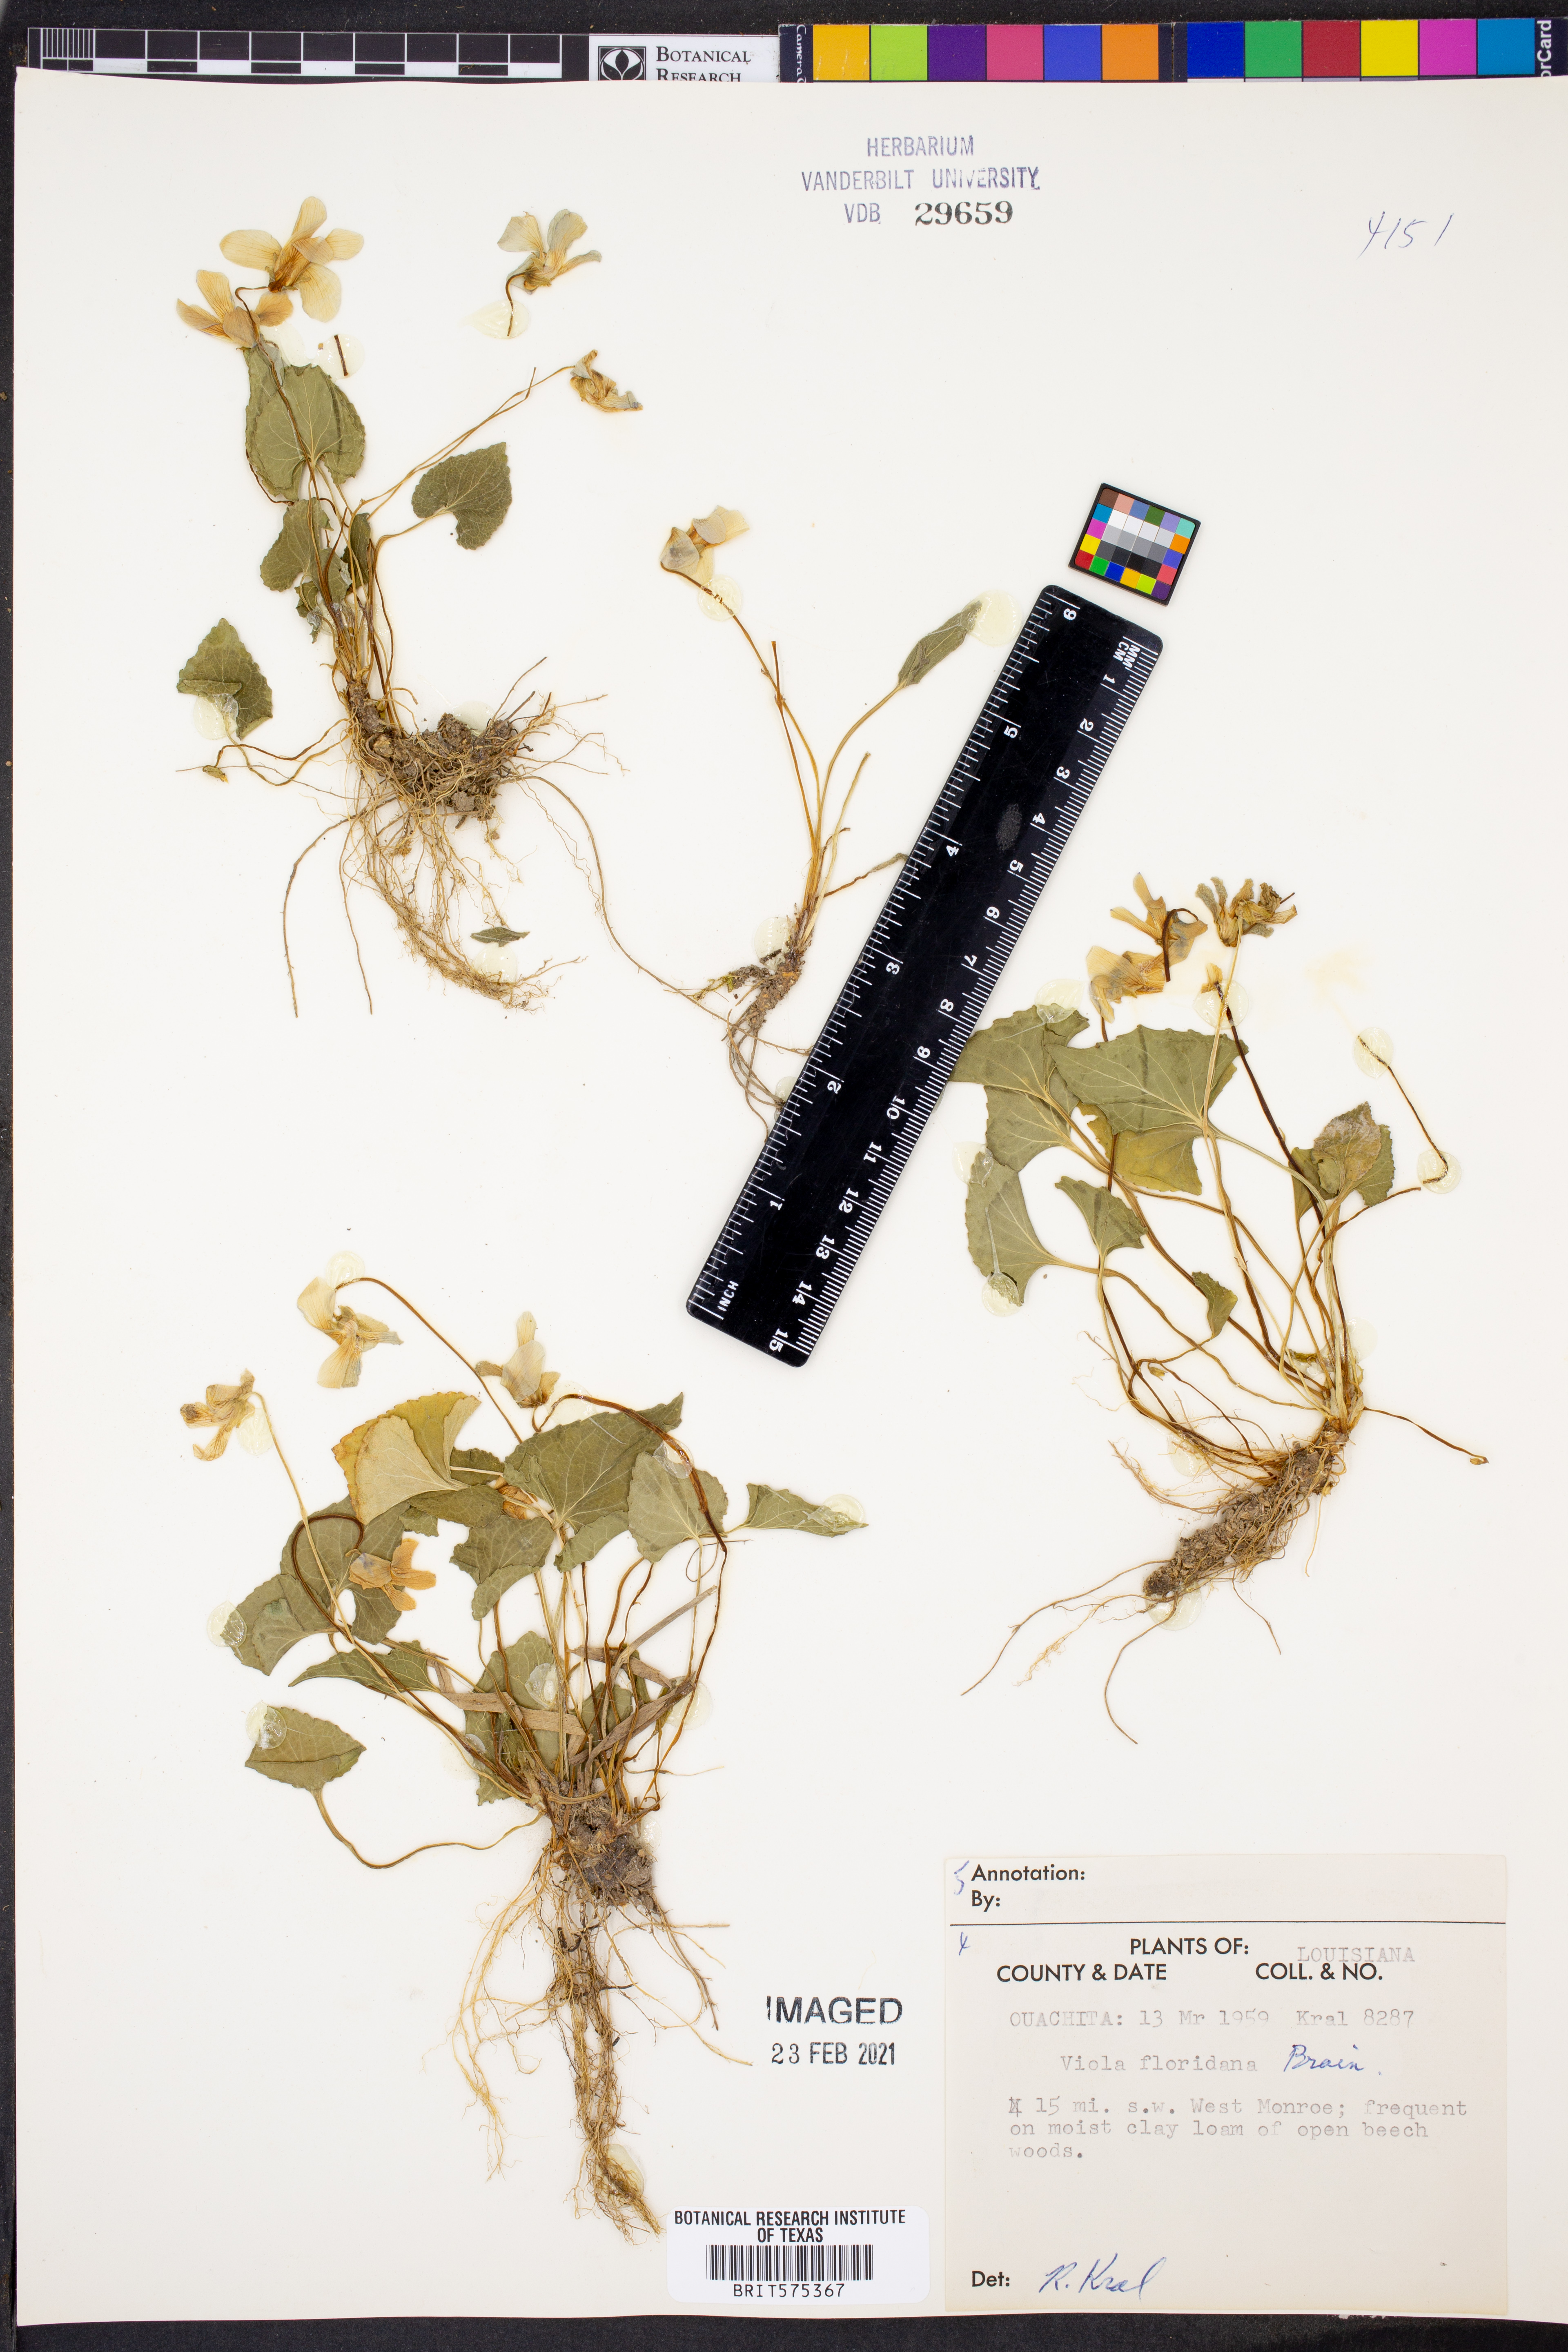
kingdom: Plantae
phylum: Tracheophyta
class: Magnoliopsida
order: Malpighiales
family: Violaceae
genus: Viola
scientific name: Viola floridana
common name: Florida violet
